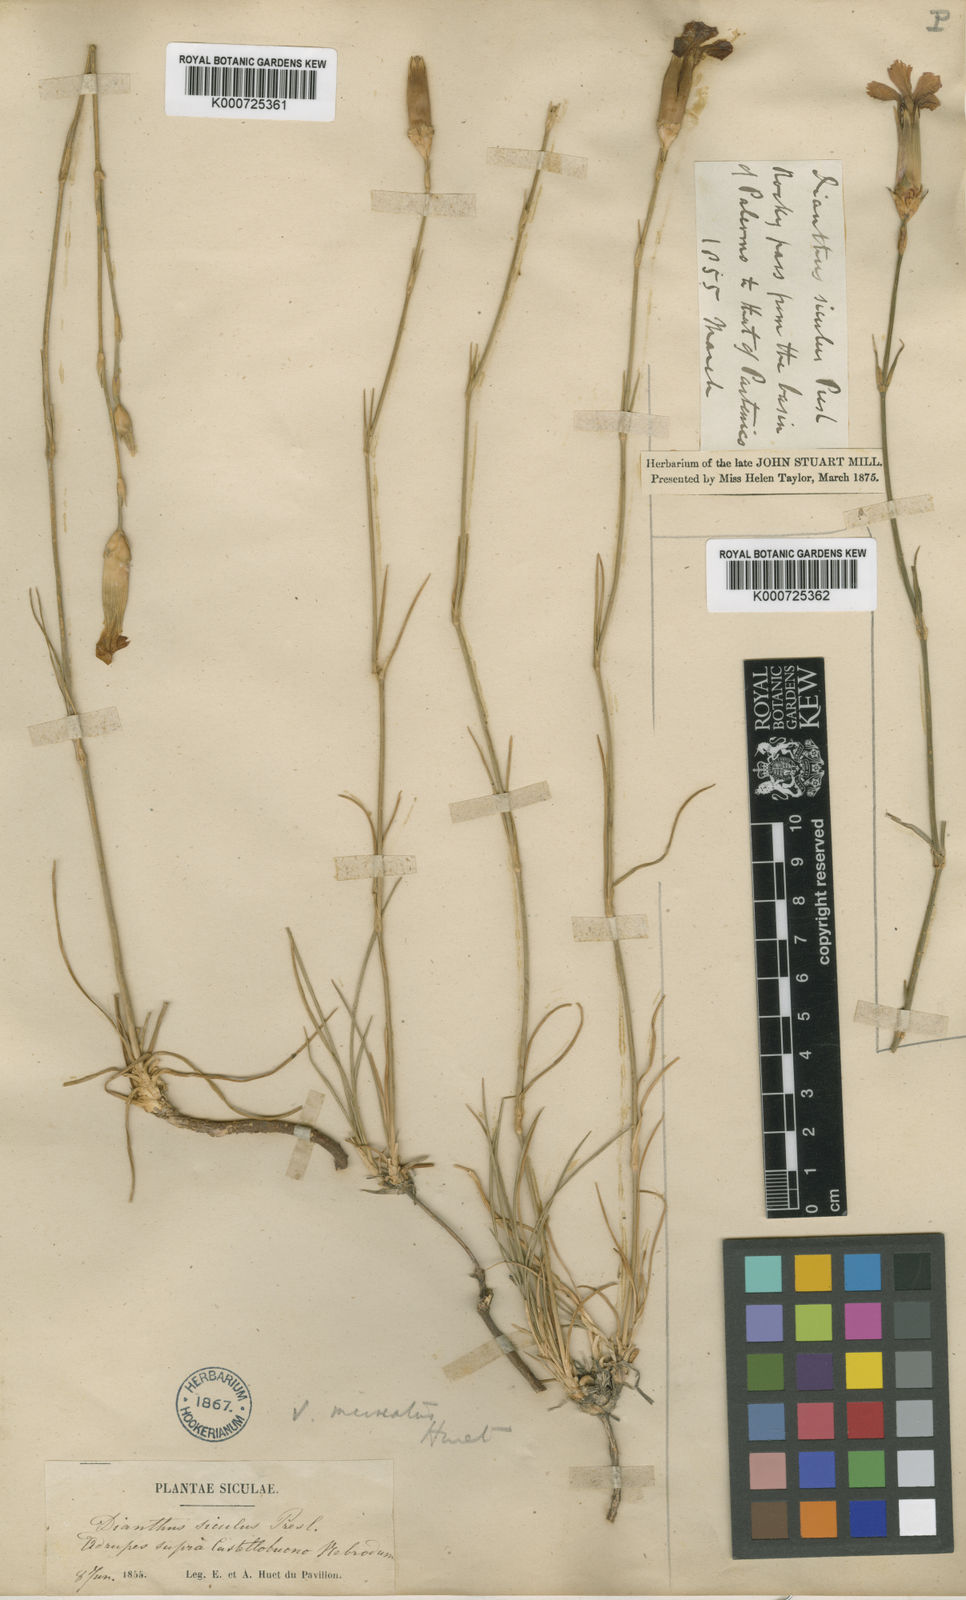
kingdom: Plantae
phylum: Tracheophyta
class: Magnoliopsida
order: Caryophyllales
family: Caryophyllaceae
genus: Dianthus
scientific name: Dianthus siculus
